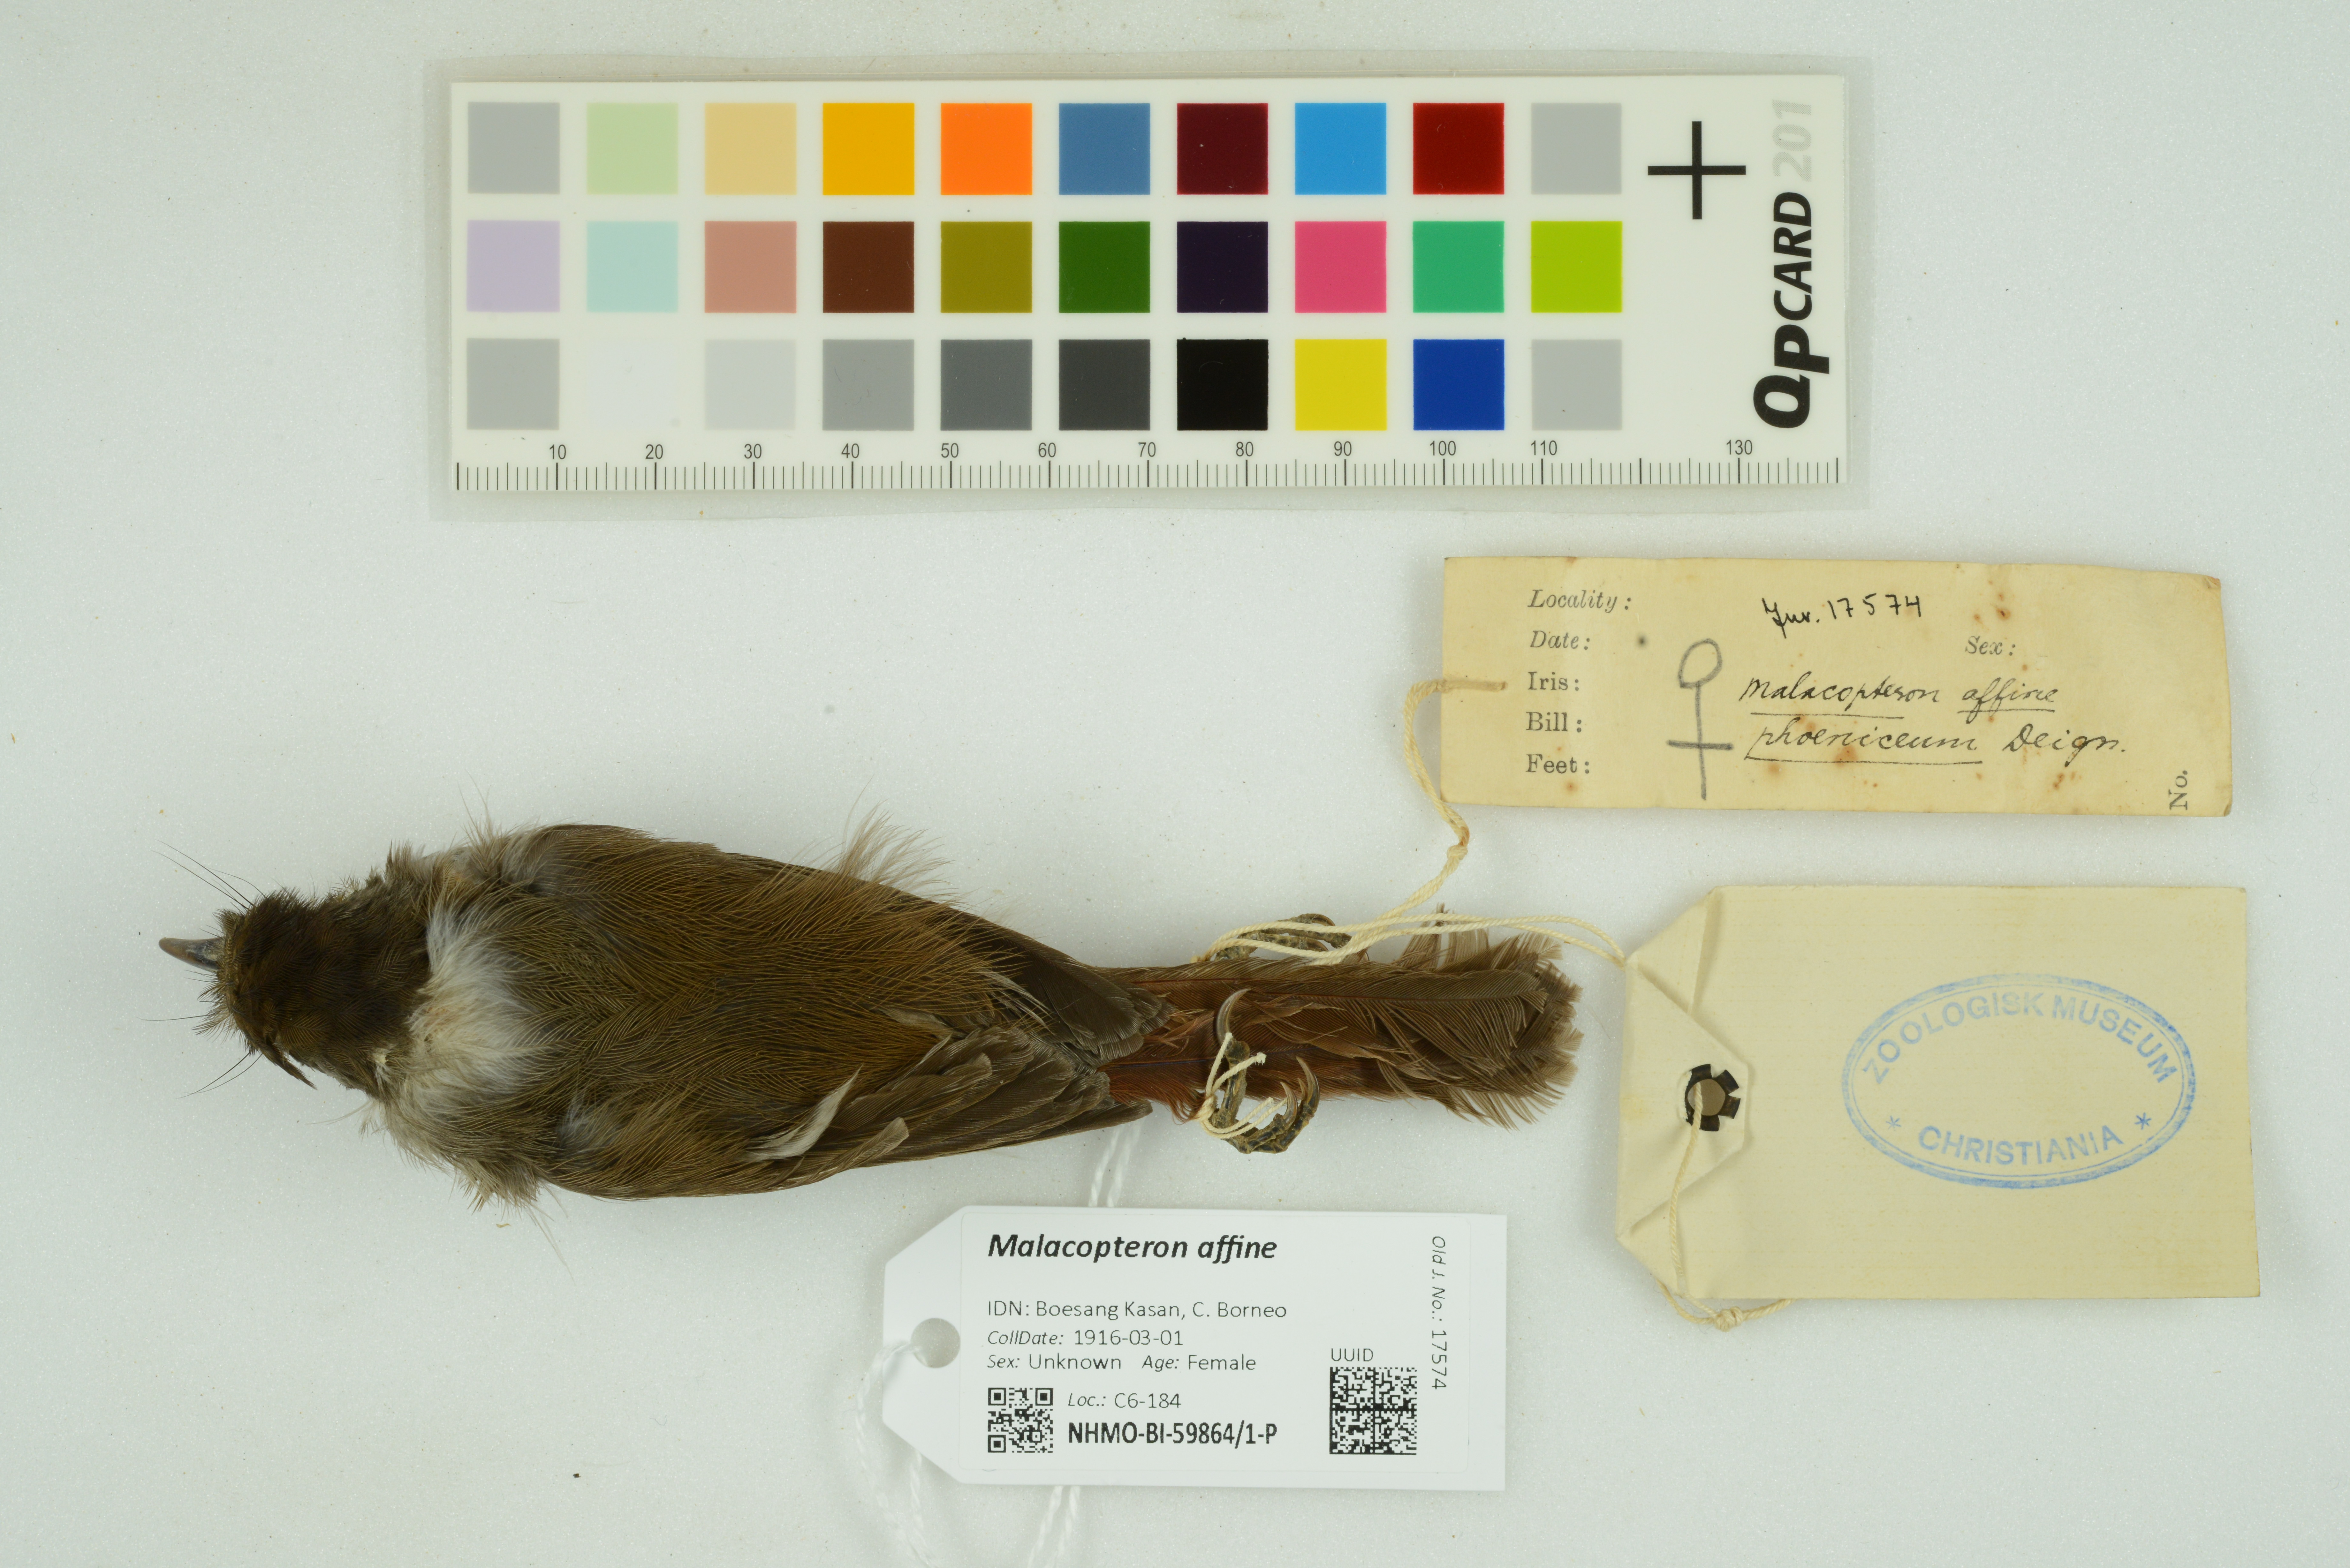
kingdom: Animalia
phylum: Chordata
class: Aves
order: Passeriformes
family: Pellorneidae
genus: Malacopteron
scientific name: Malacopteron affine
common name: Sooty-capped babbler
